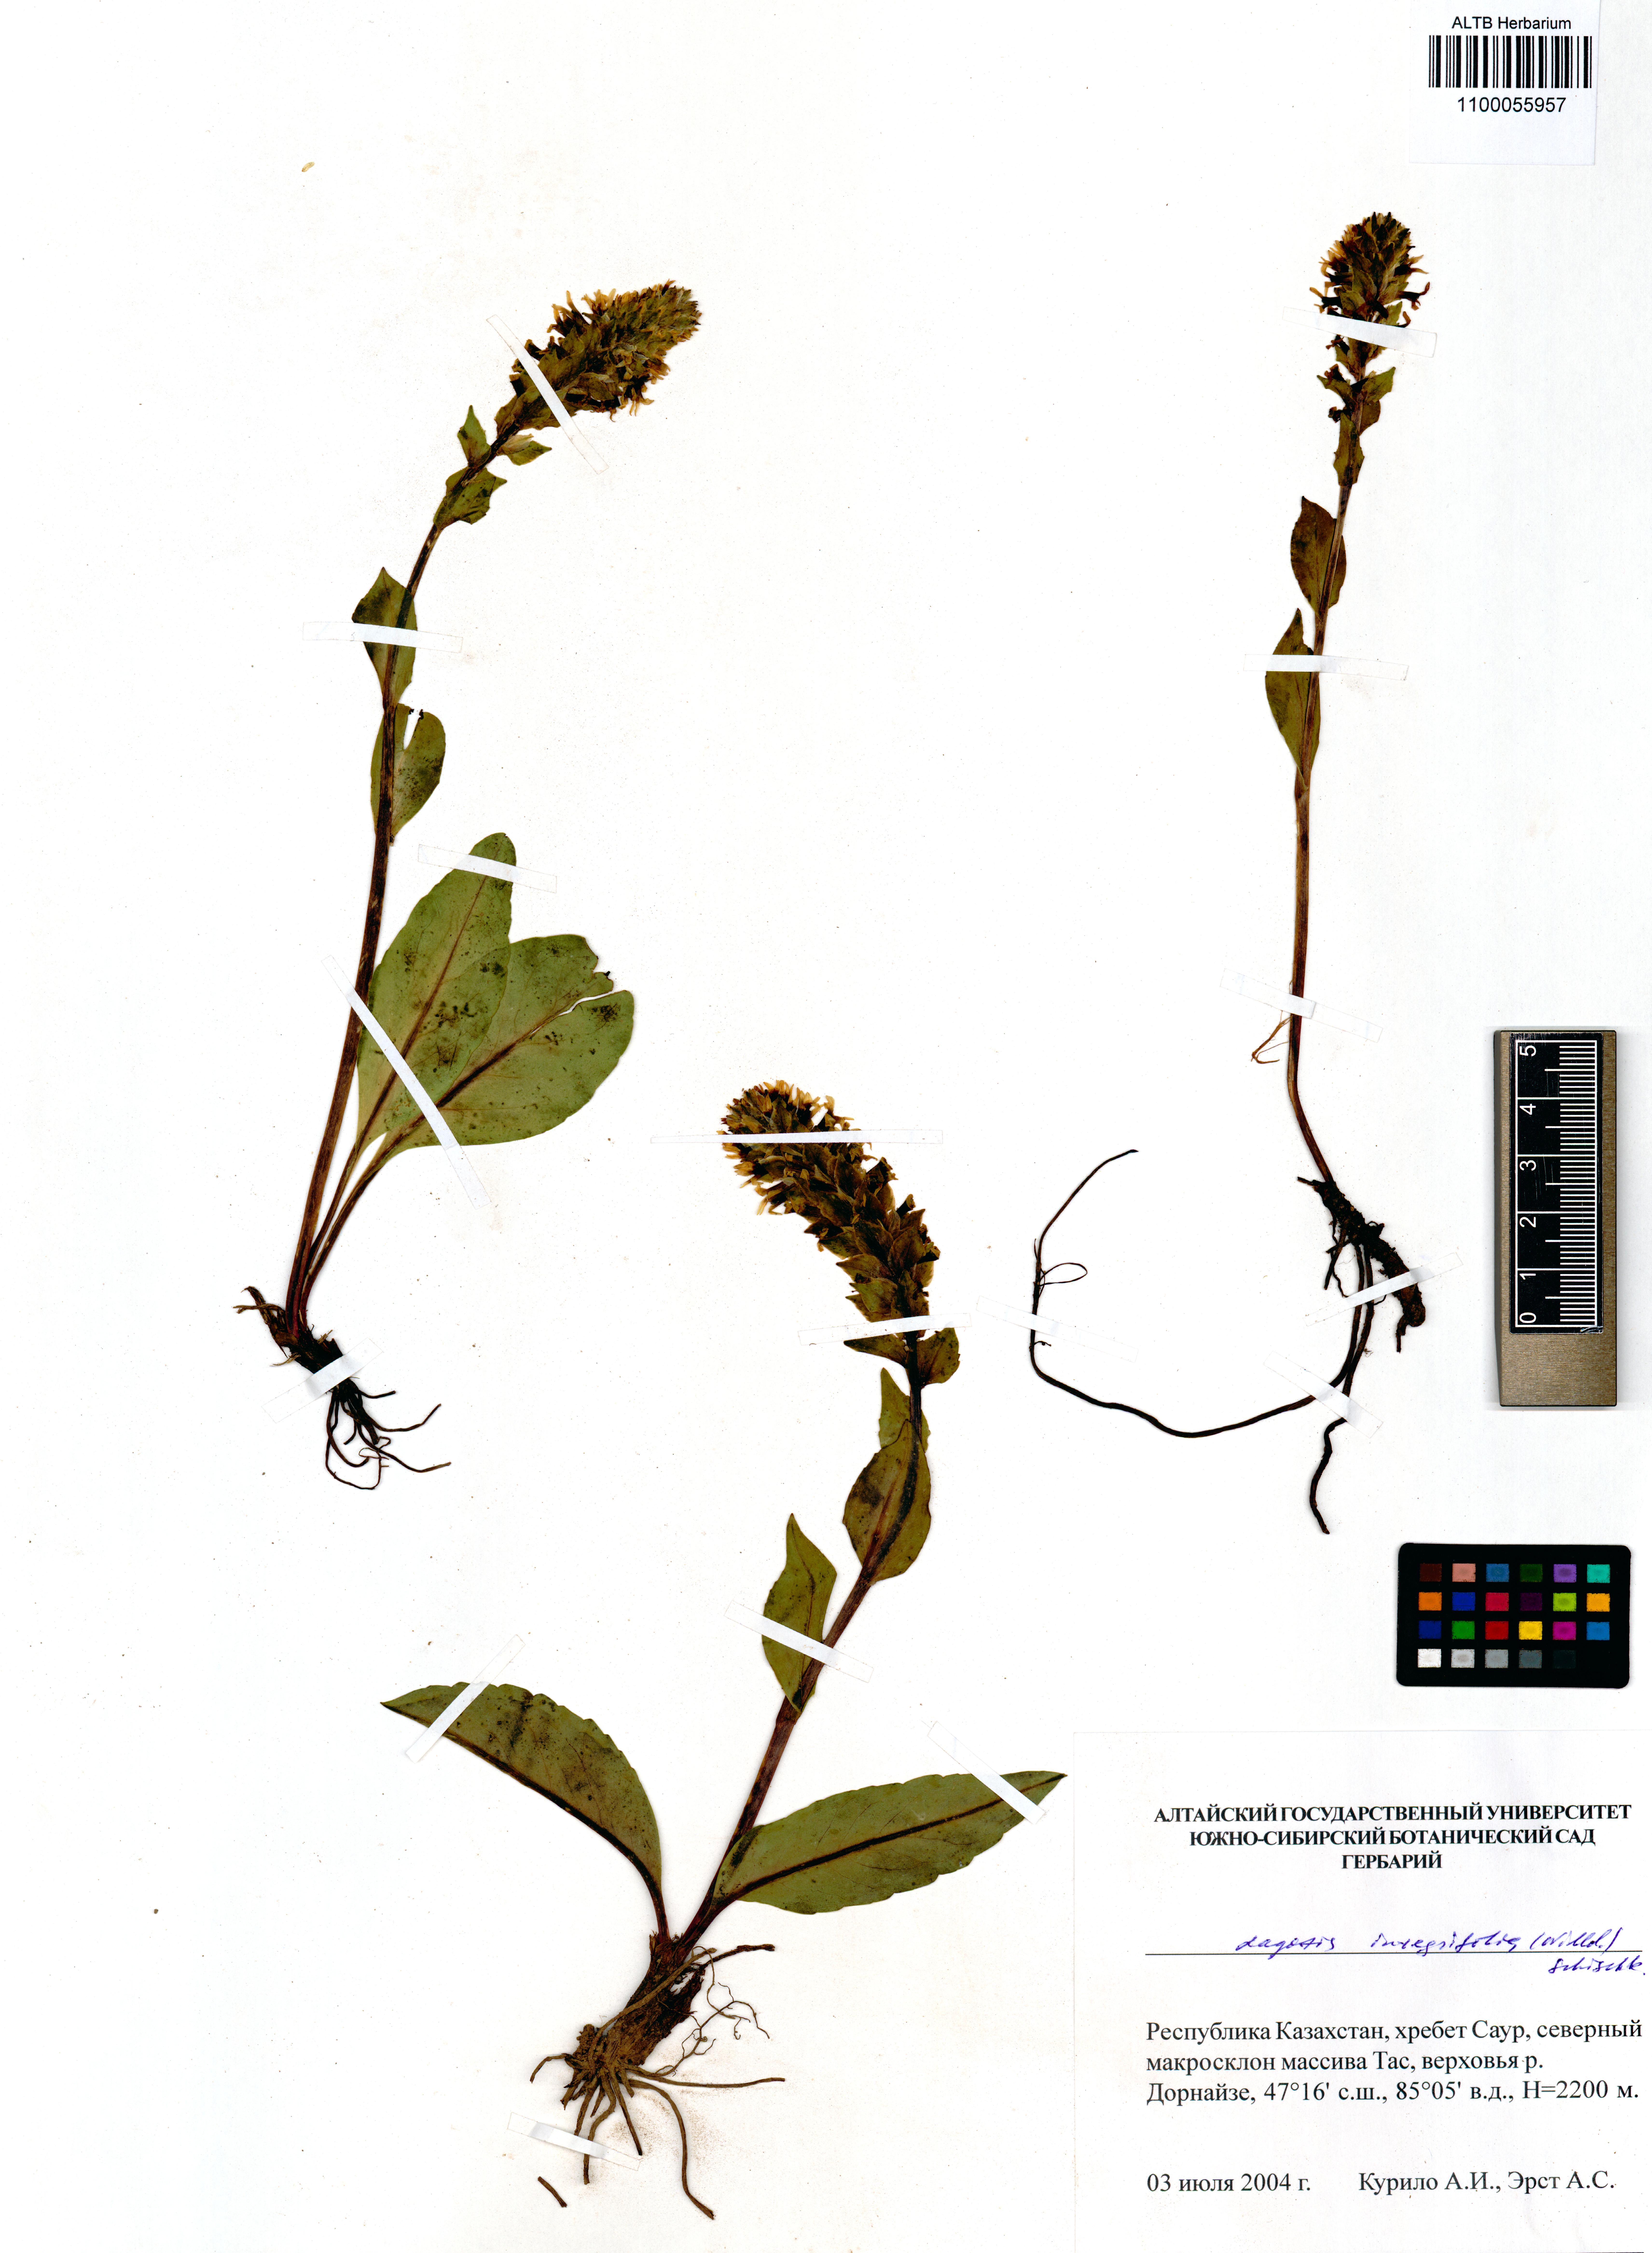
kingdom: Plantae
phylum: Tracheophyta
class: Magnoliopsida
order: Lamiales
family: Plantaginaceae
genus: Lagotis
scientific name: Lagotis integrifolia
